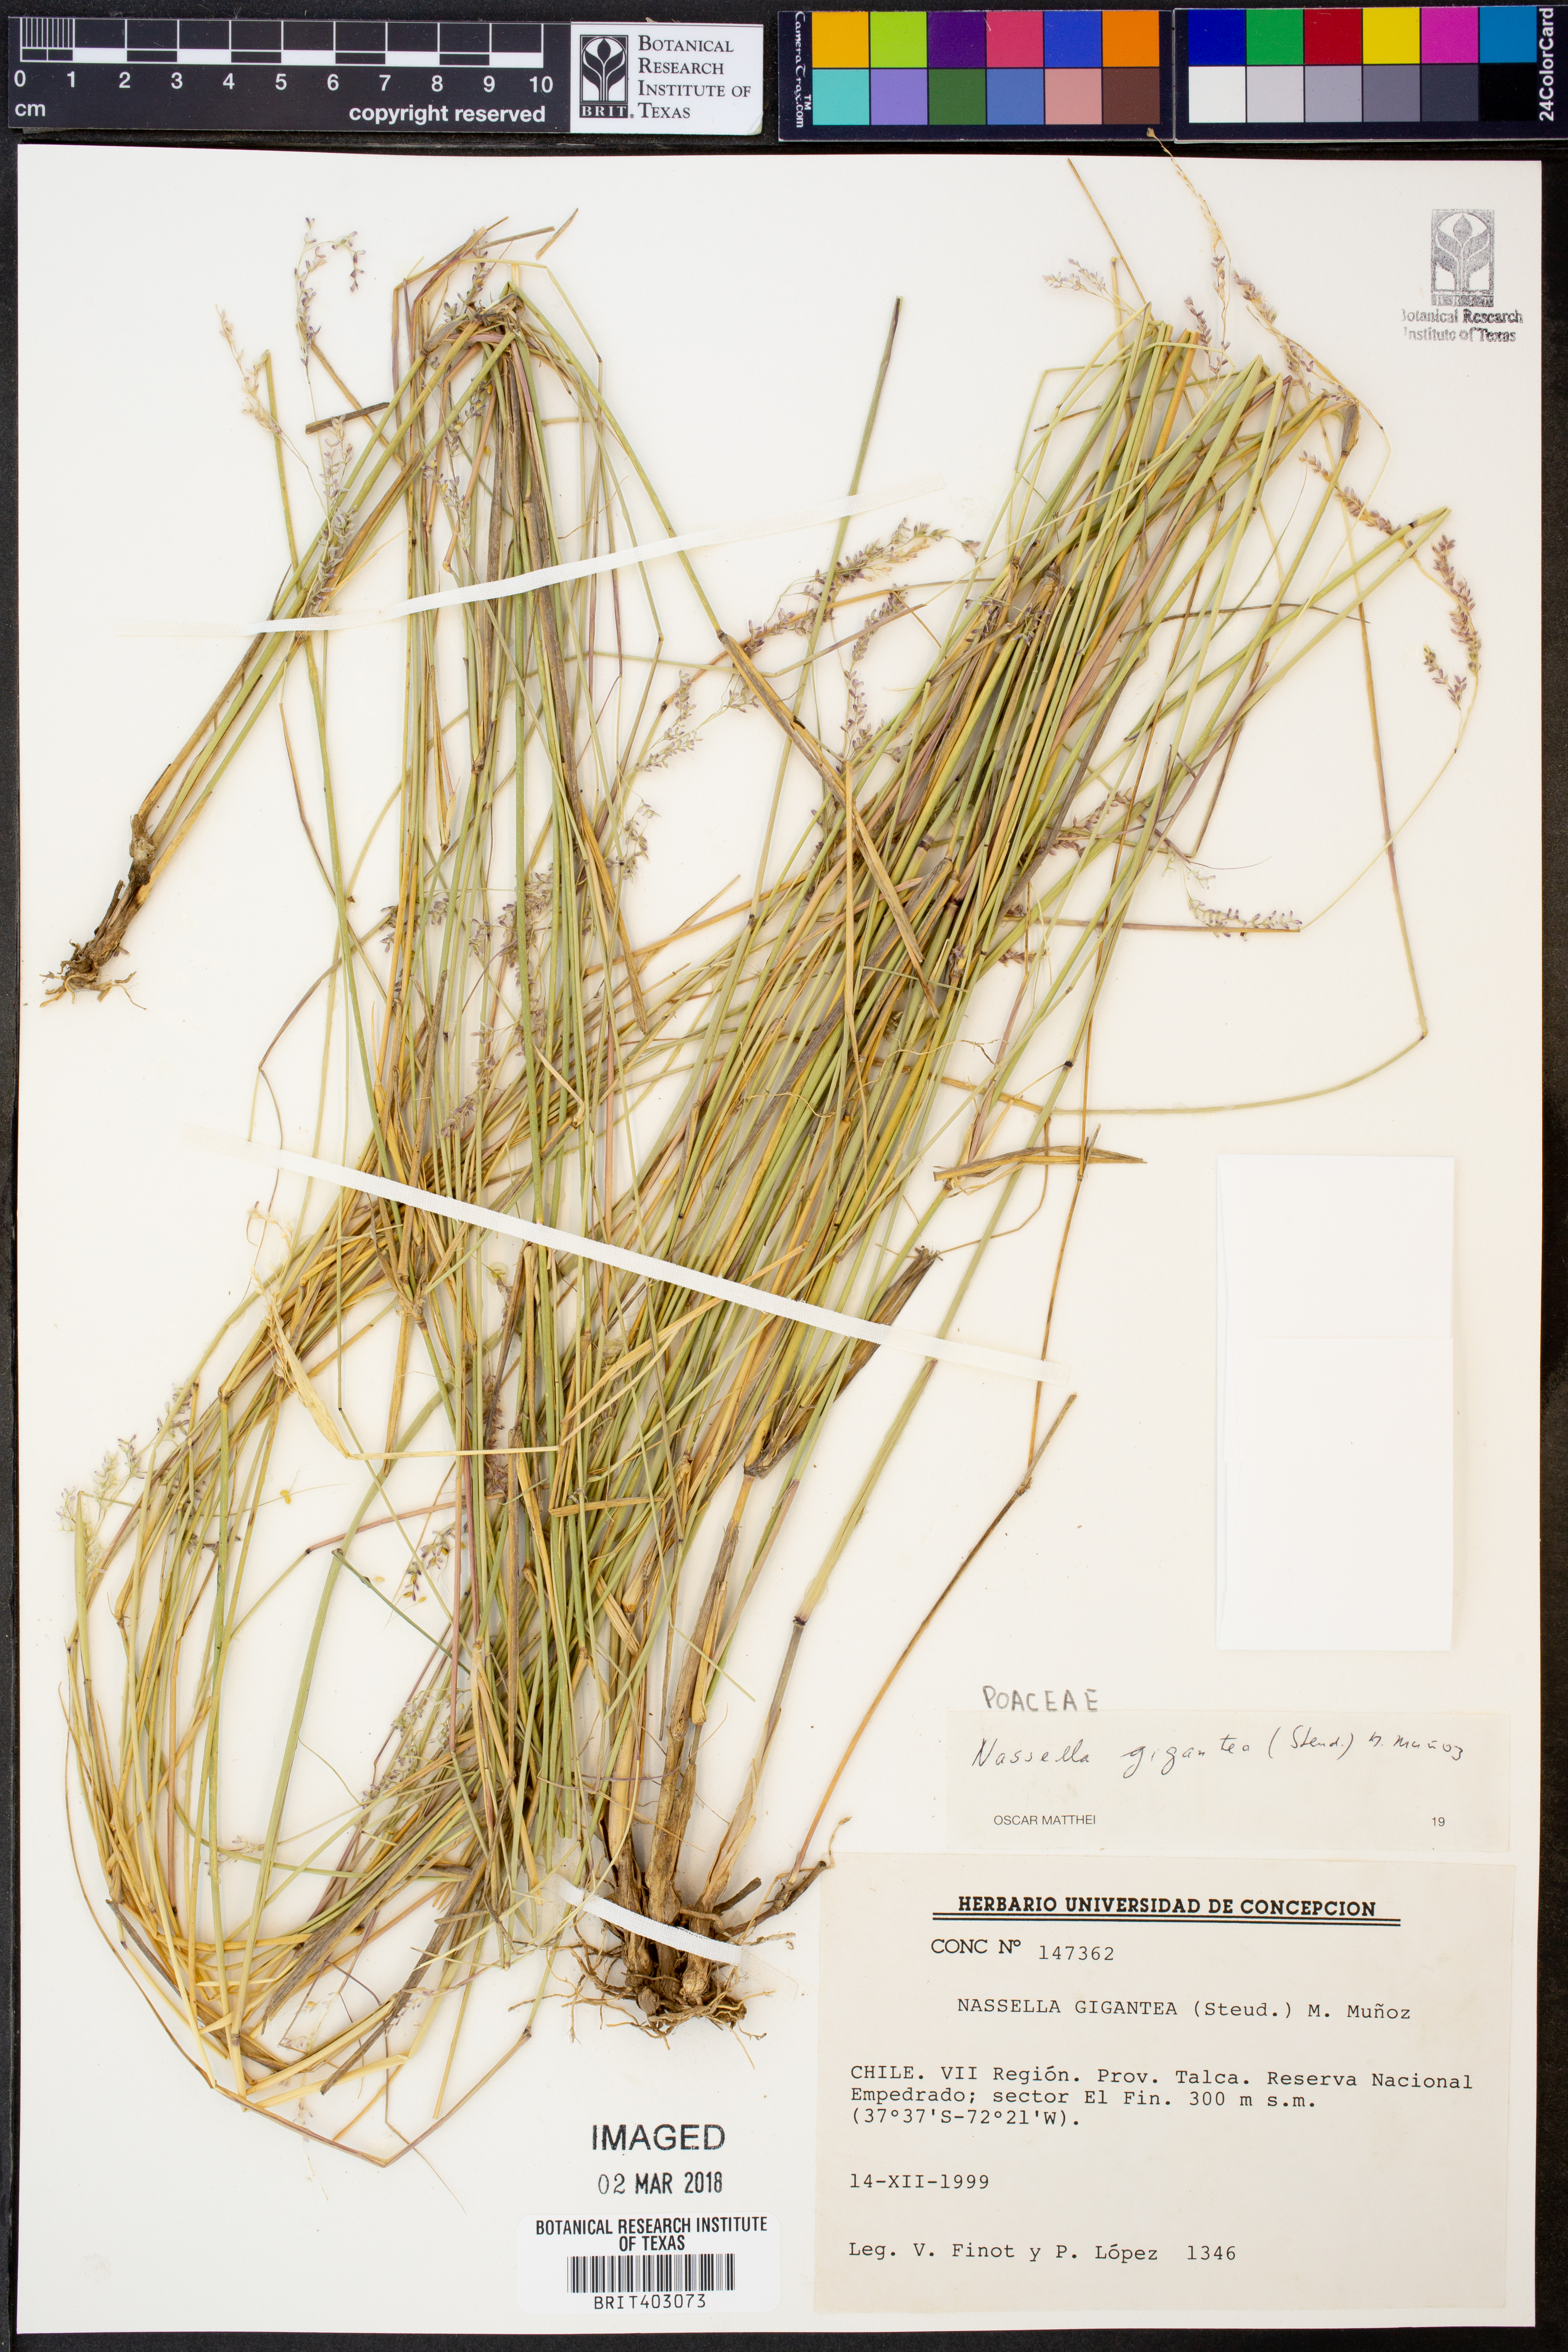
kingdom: Plantae
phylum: Tracheophyta
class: Liliopsida
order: Poales
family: Poaceae
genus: Nassella
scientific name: Nassella gigantea
